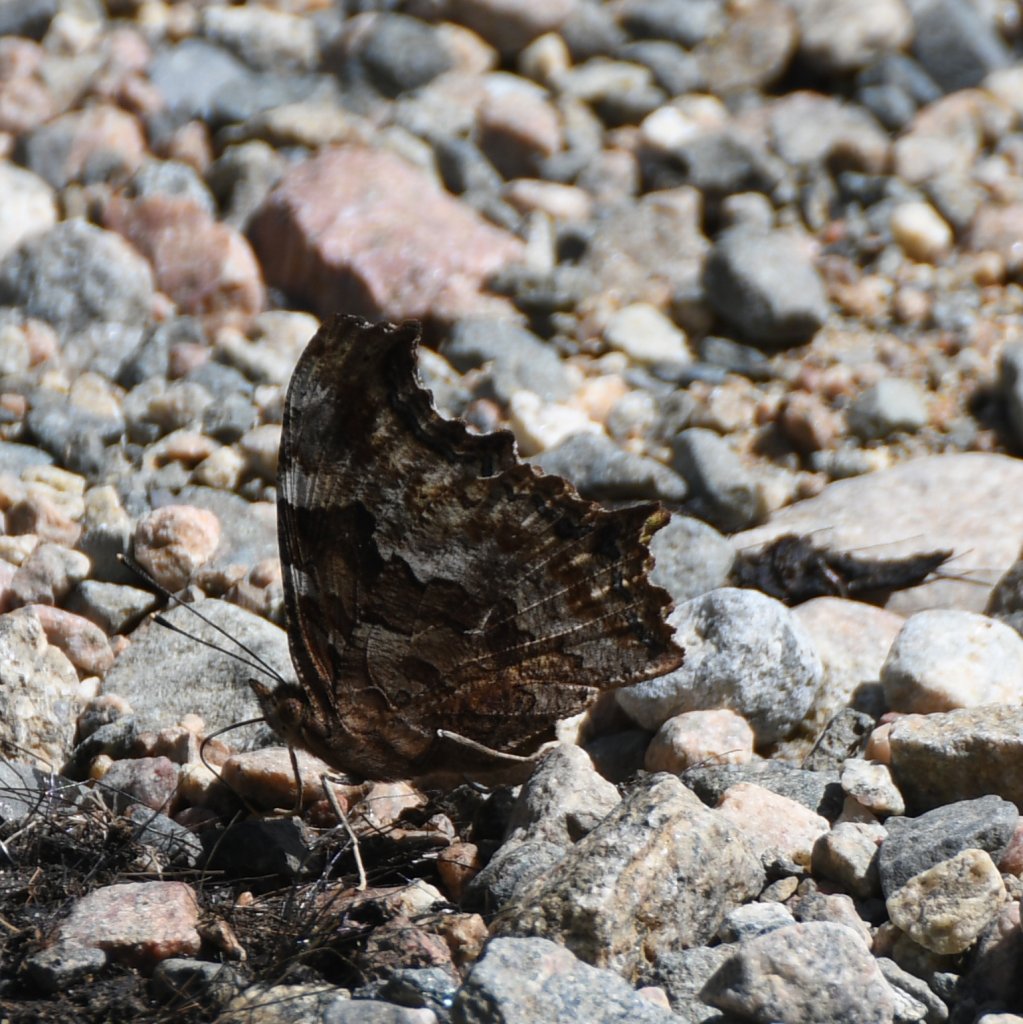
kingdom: Animalia
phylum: Arthropoda
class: Insecta
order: Lepidoptera
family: Nymphalidae
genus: Polygonia
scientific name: Polygonia vaualbum
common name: Compton Tortoiseshell
